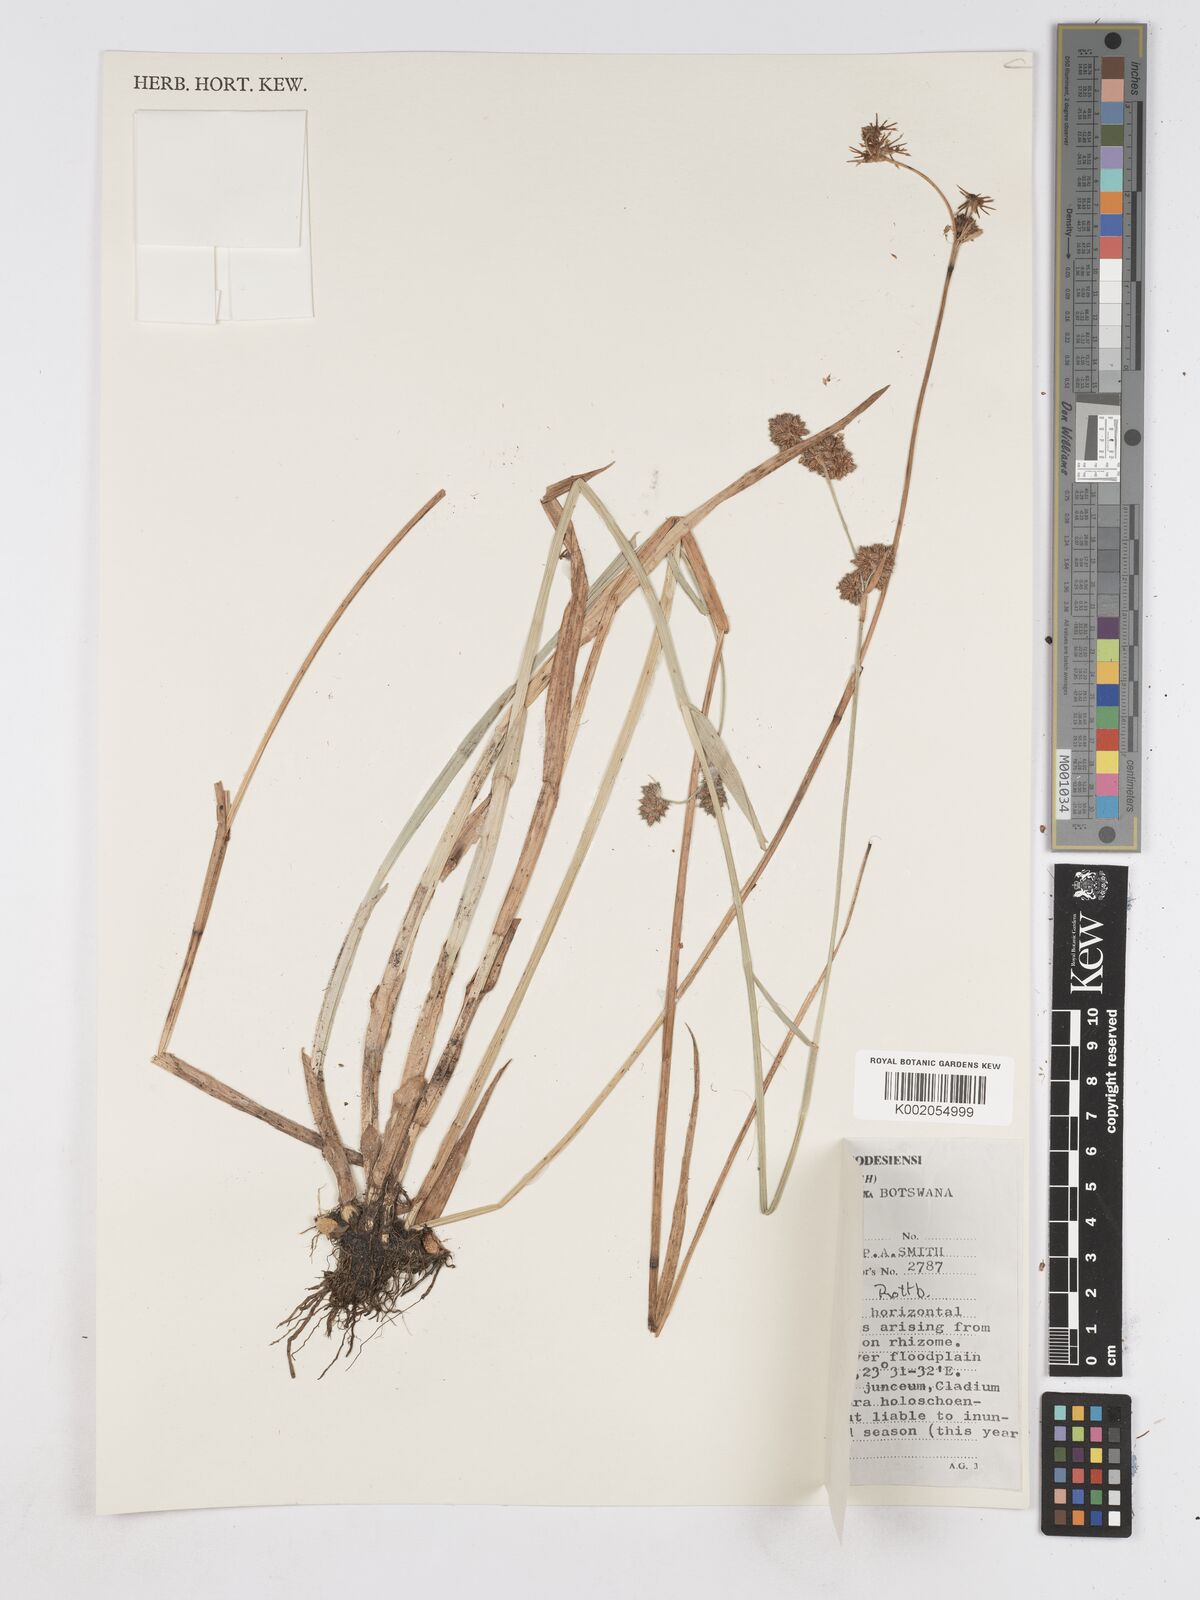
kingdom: Plantae
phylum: Tracheophyta
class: Liliopsida
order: Poales
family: Cyperaceae
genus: Fuirena
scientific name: Fuirena umbellata
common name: Yefen
